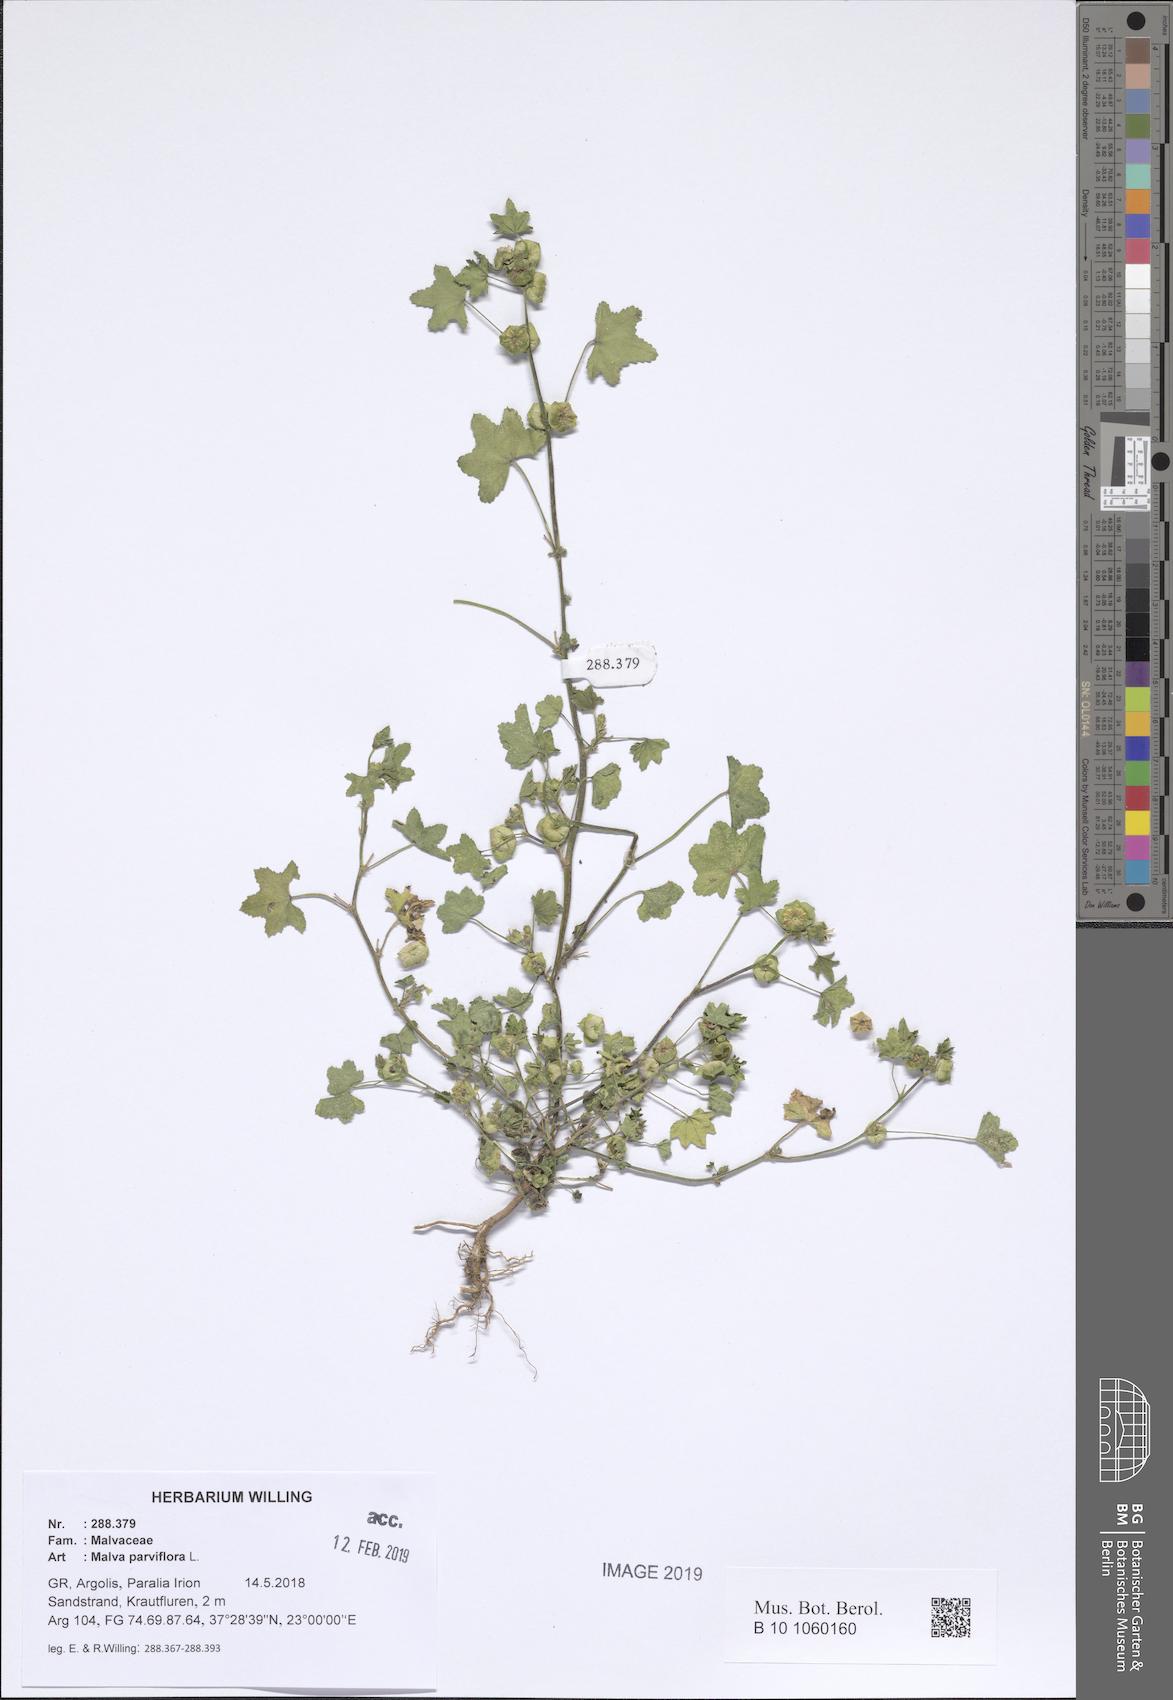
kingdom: Plantae
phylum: Tracheophyta
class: Magnoliopsida
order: Malvales
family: Malvaceae
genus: Malva
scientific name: Malva parviflora
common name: Least mallow
